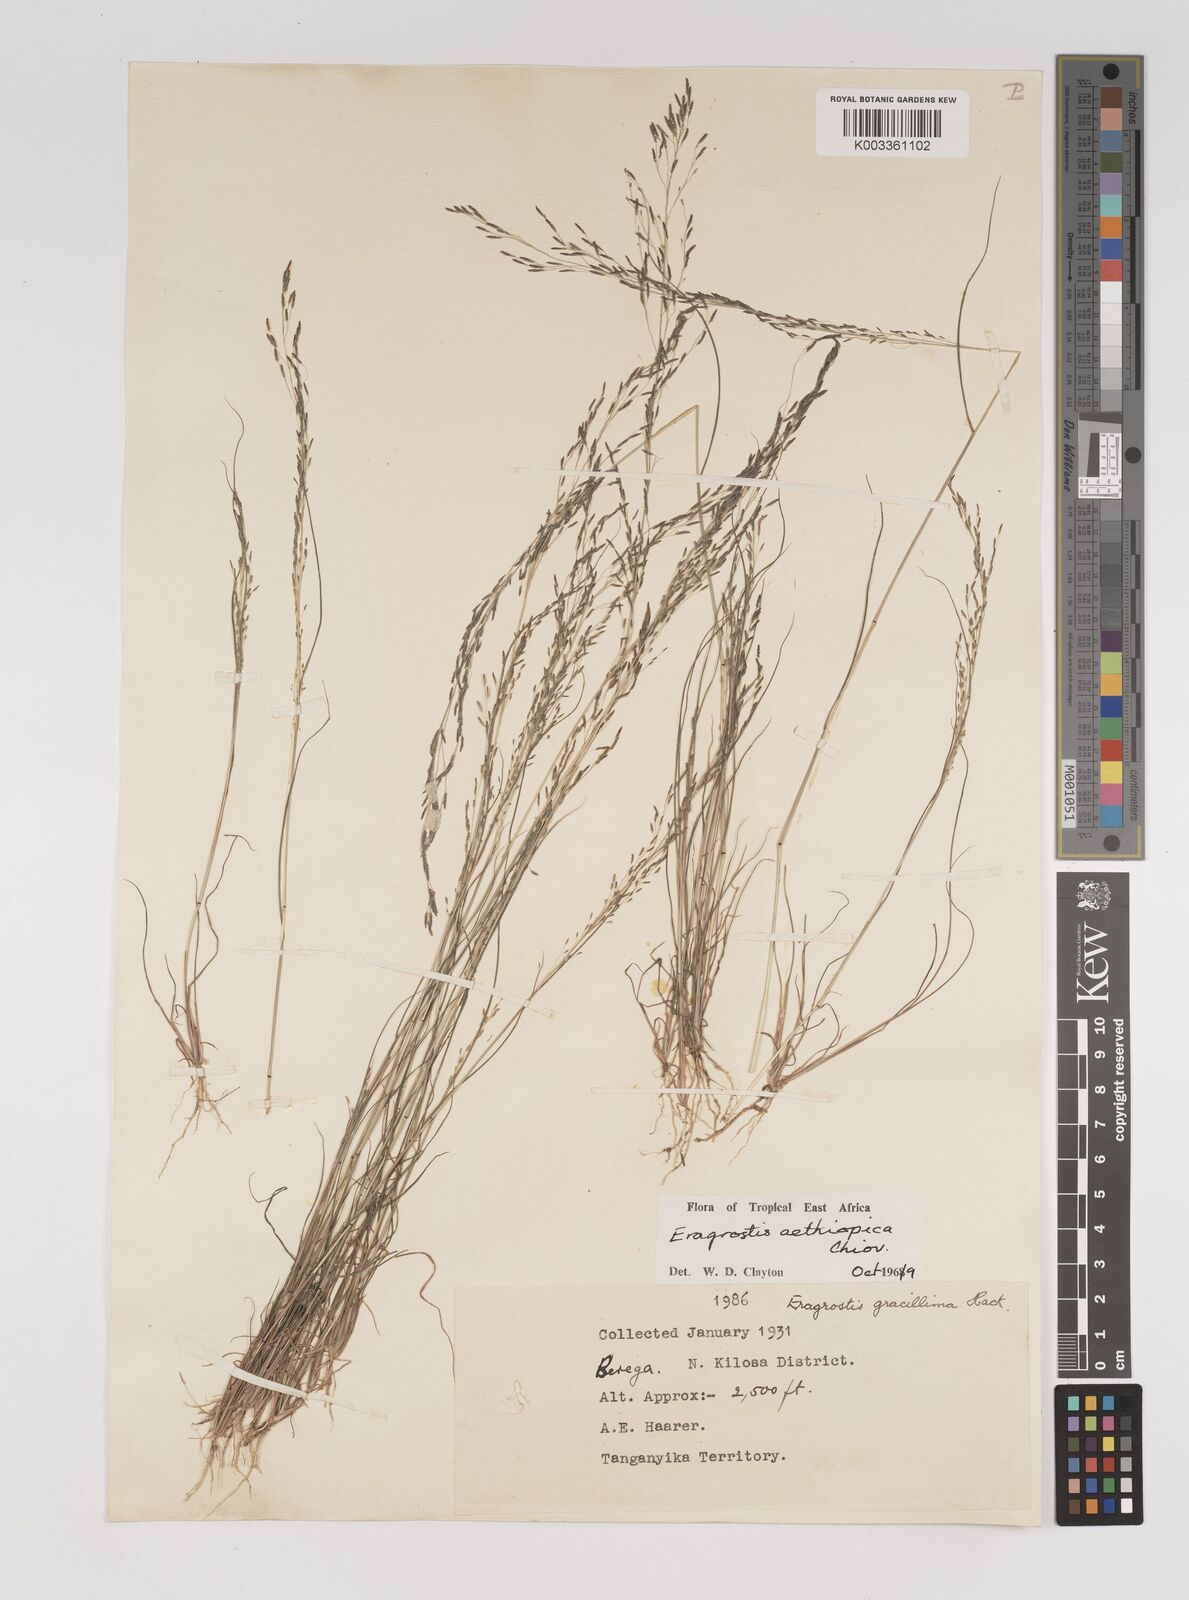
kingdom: Plantae
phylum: Tracheophyta
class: Liliopsida
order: Poales
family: Poaceae
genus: Eragrostis
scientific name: Eragrostis aethiopica
